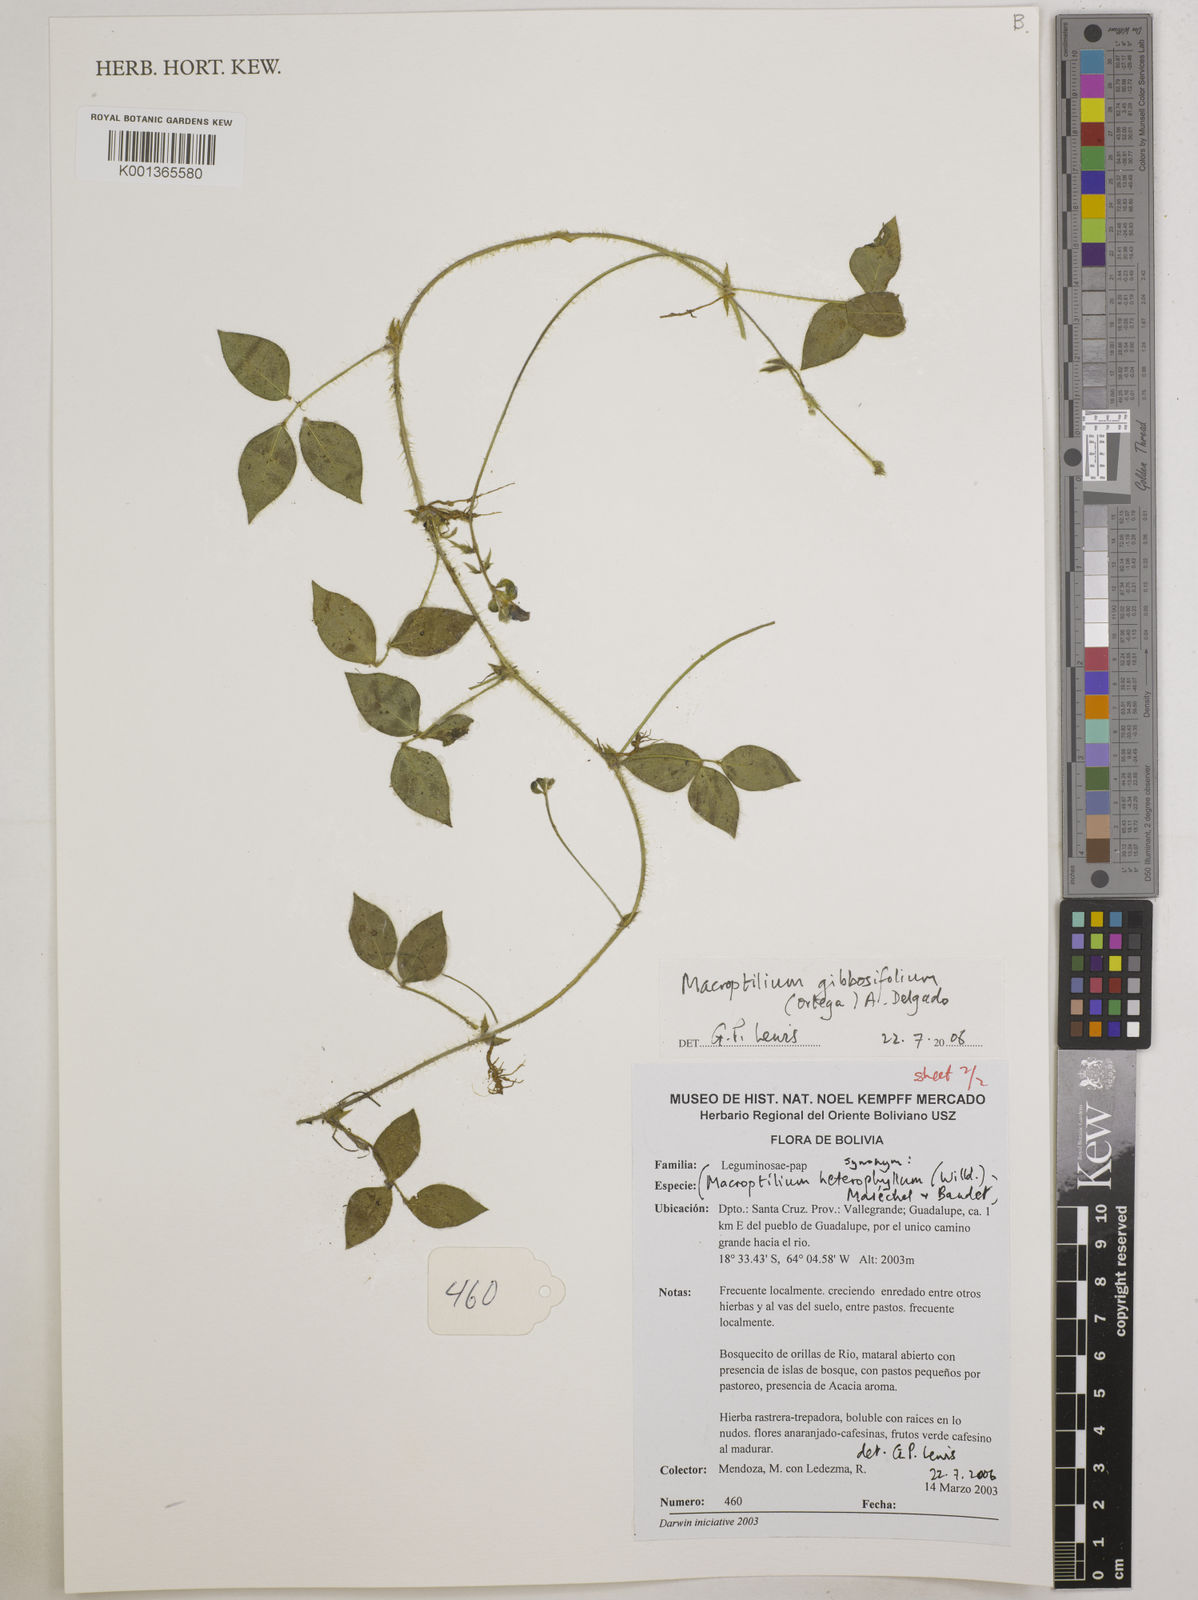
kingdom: Plantae
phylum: Tracheophyta
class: Magnoliopsida
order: Fabales
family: Fabaceae
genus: Macroptilium
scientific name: Macroptilium gibbosifolium
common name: Variableleaf bushbean
